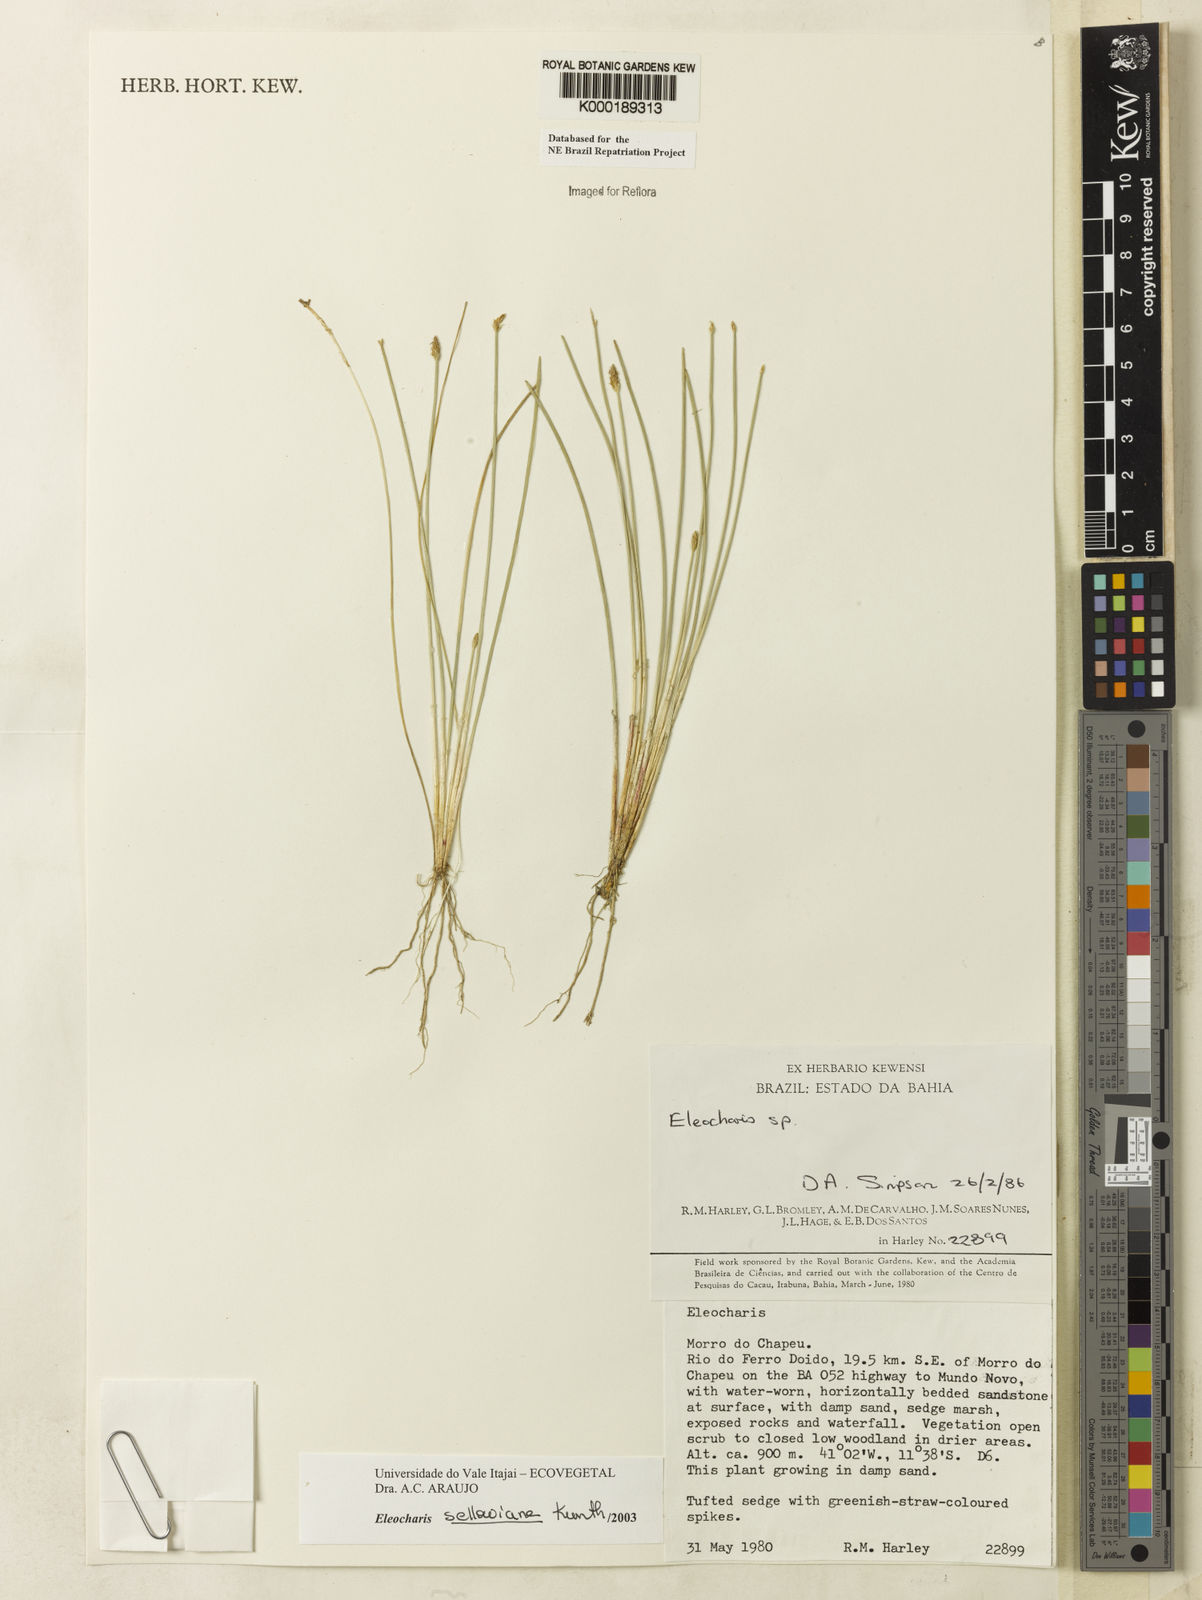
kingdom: Plantae
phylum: Tracheophyta
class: Liliopsida
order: Poales
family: Cyperaceae
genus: Eleocharis
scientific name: Eleocharis sellowiana
